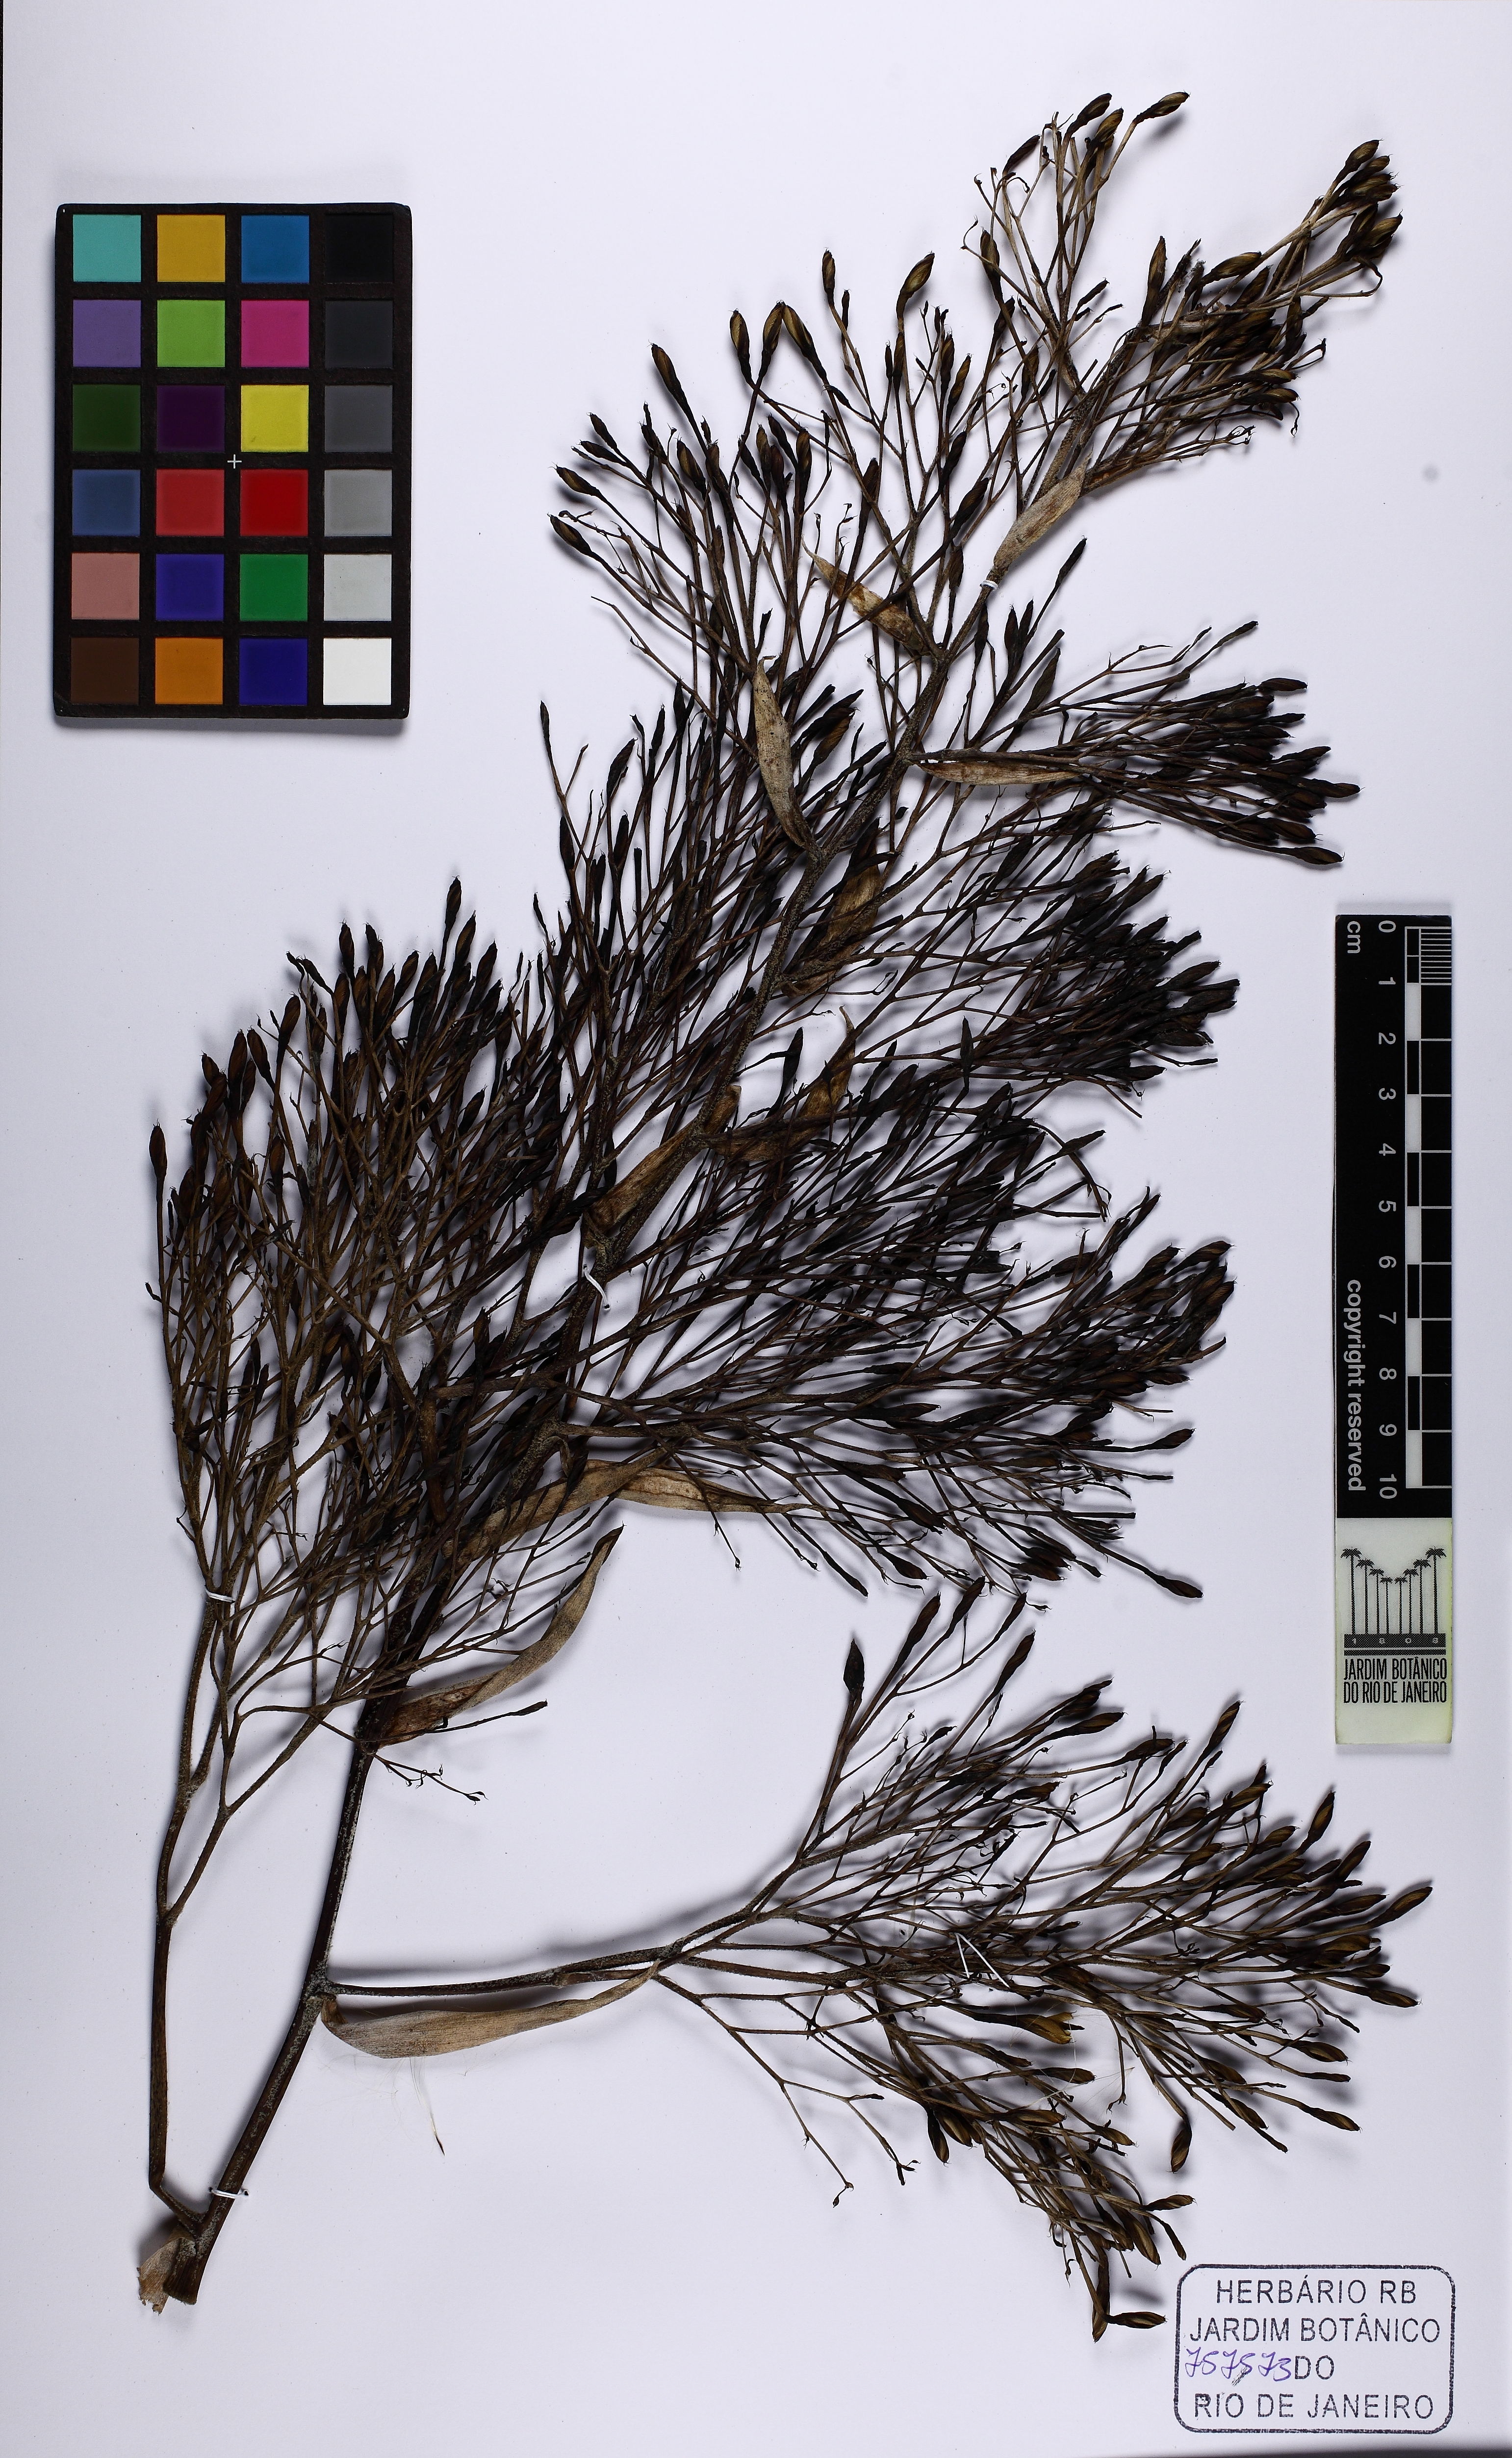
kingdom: Plantae
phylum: Tracheophyta
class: Liliopsida
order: Poales
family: Bromeliaceae
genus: Aechmea
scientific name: Aechmea leptantha
